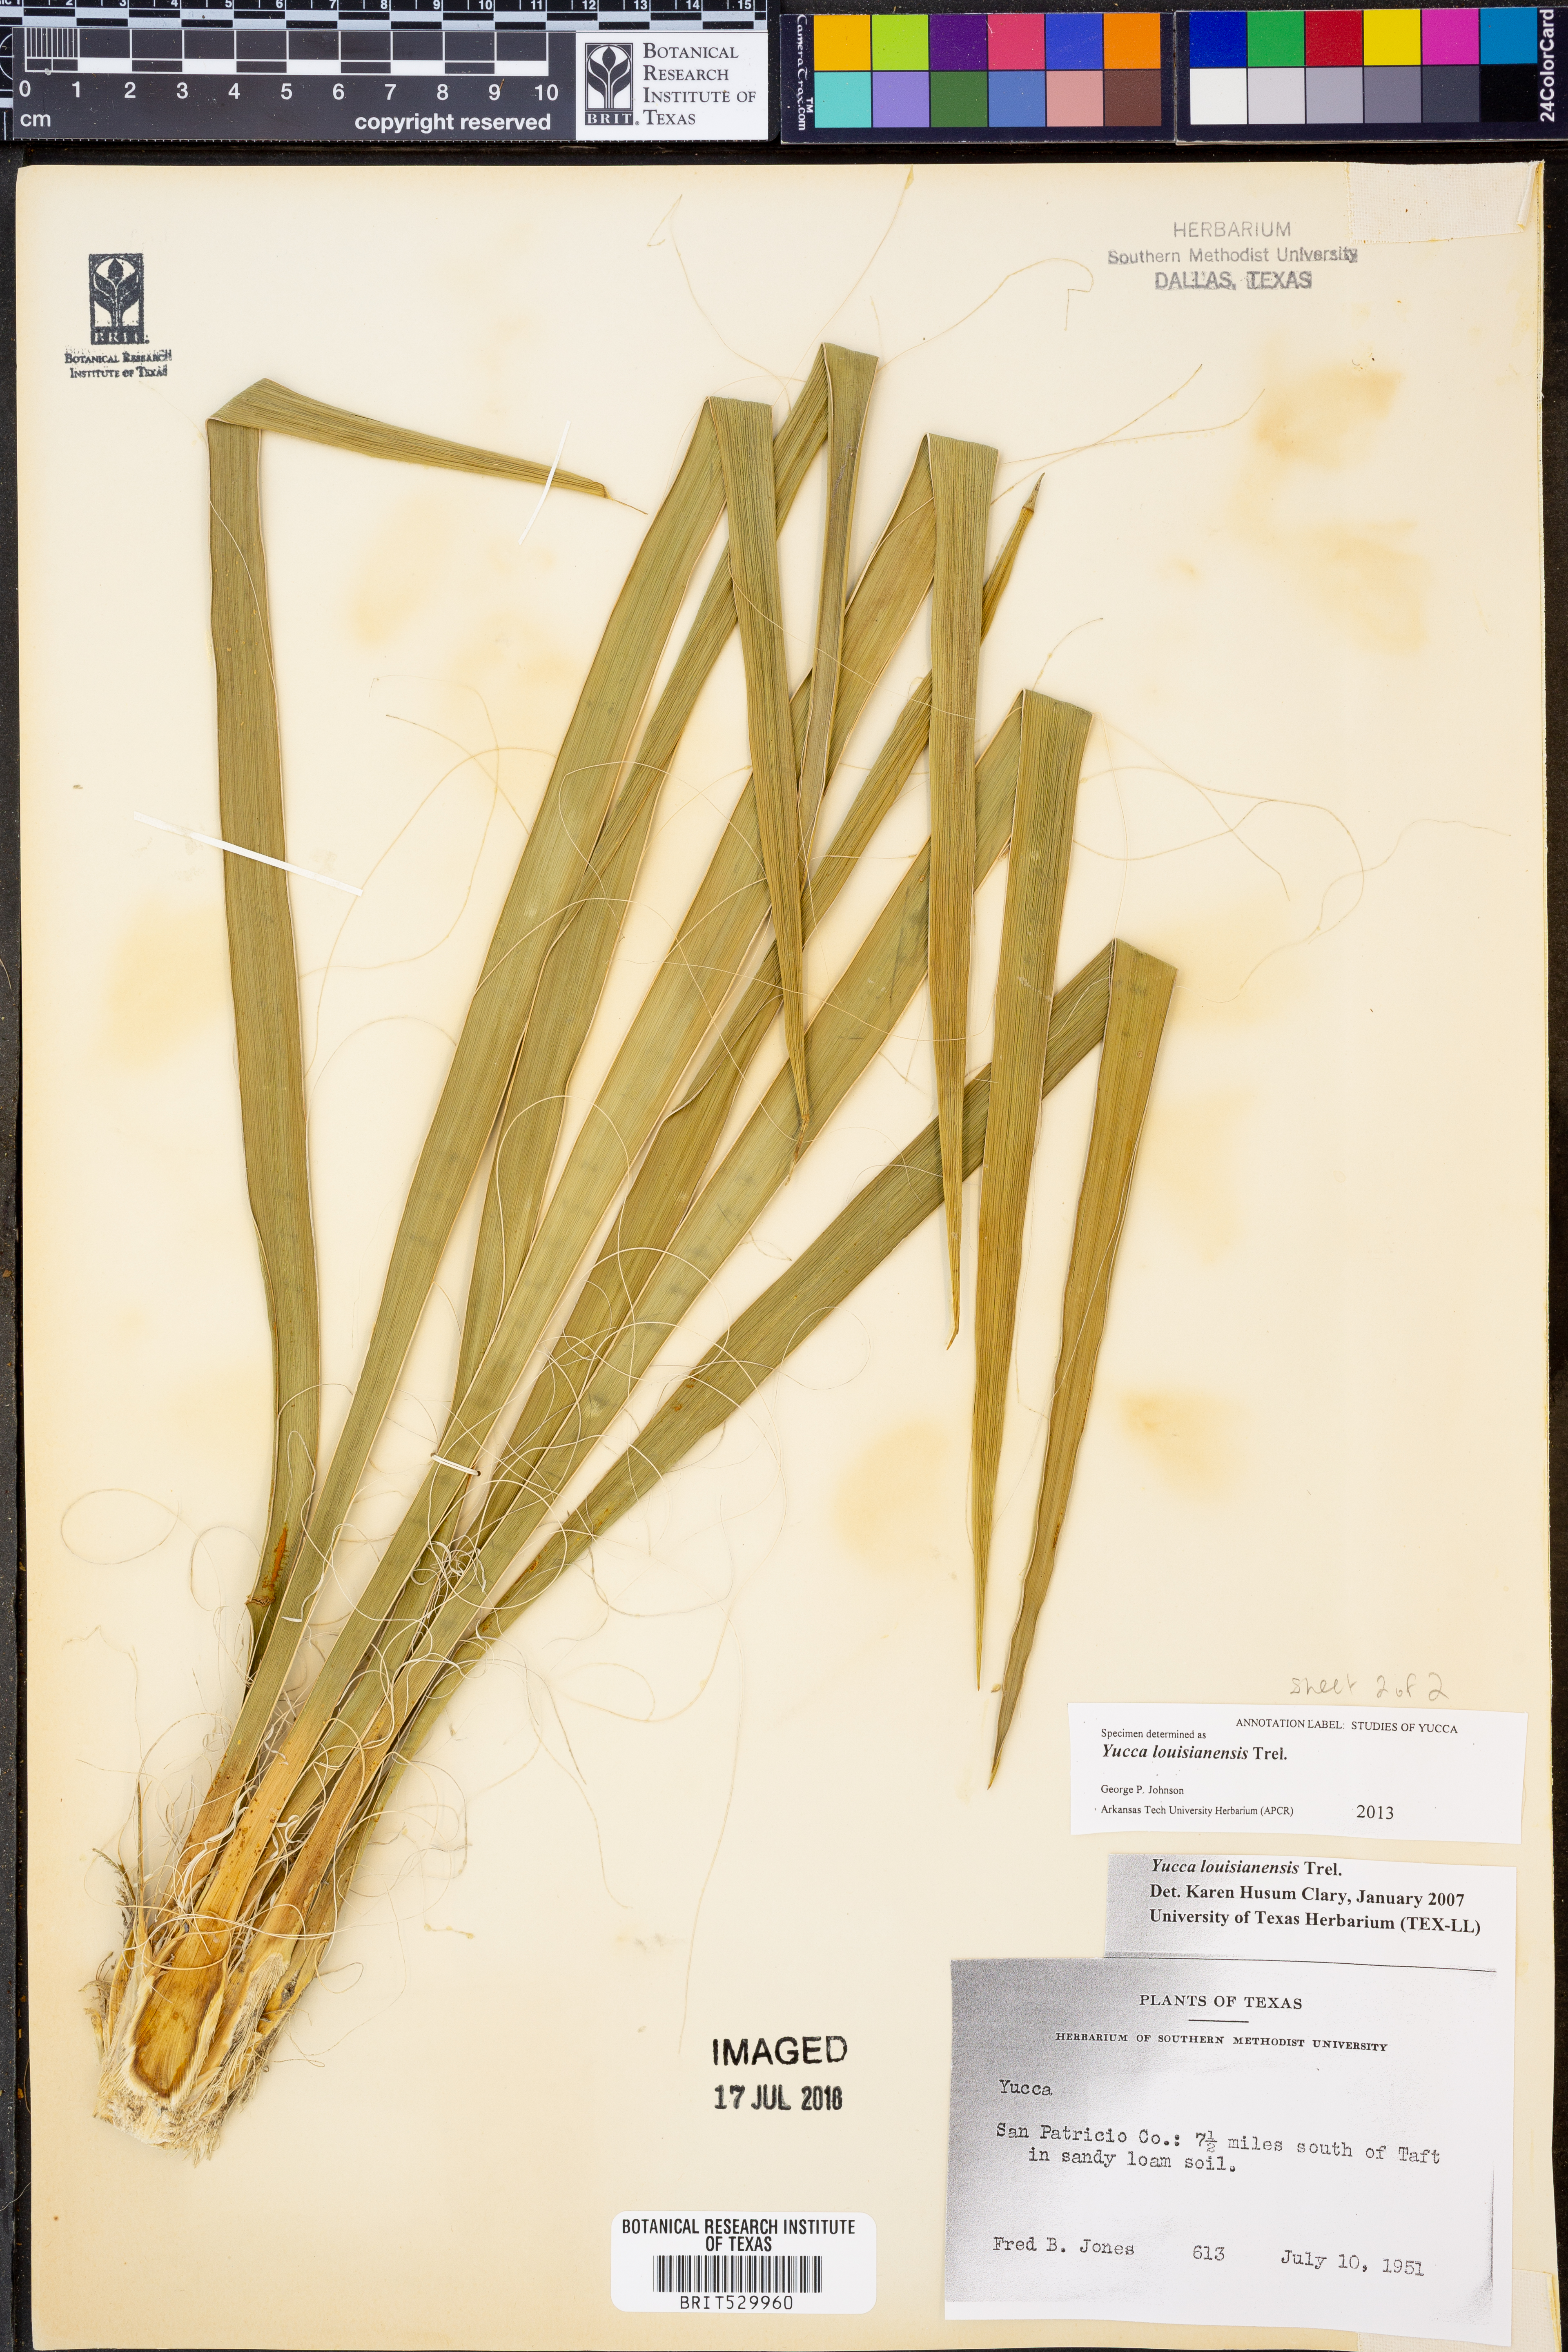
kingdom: Plantae
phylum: Tracheophyta
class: Liliopsida
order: Asparagales
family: Asparagaceae
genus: Yucca
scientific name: Yucca flaccida
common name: Adam's-needle
